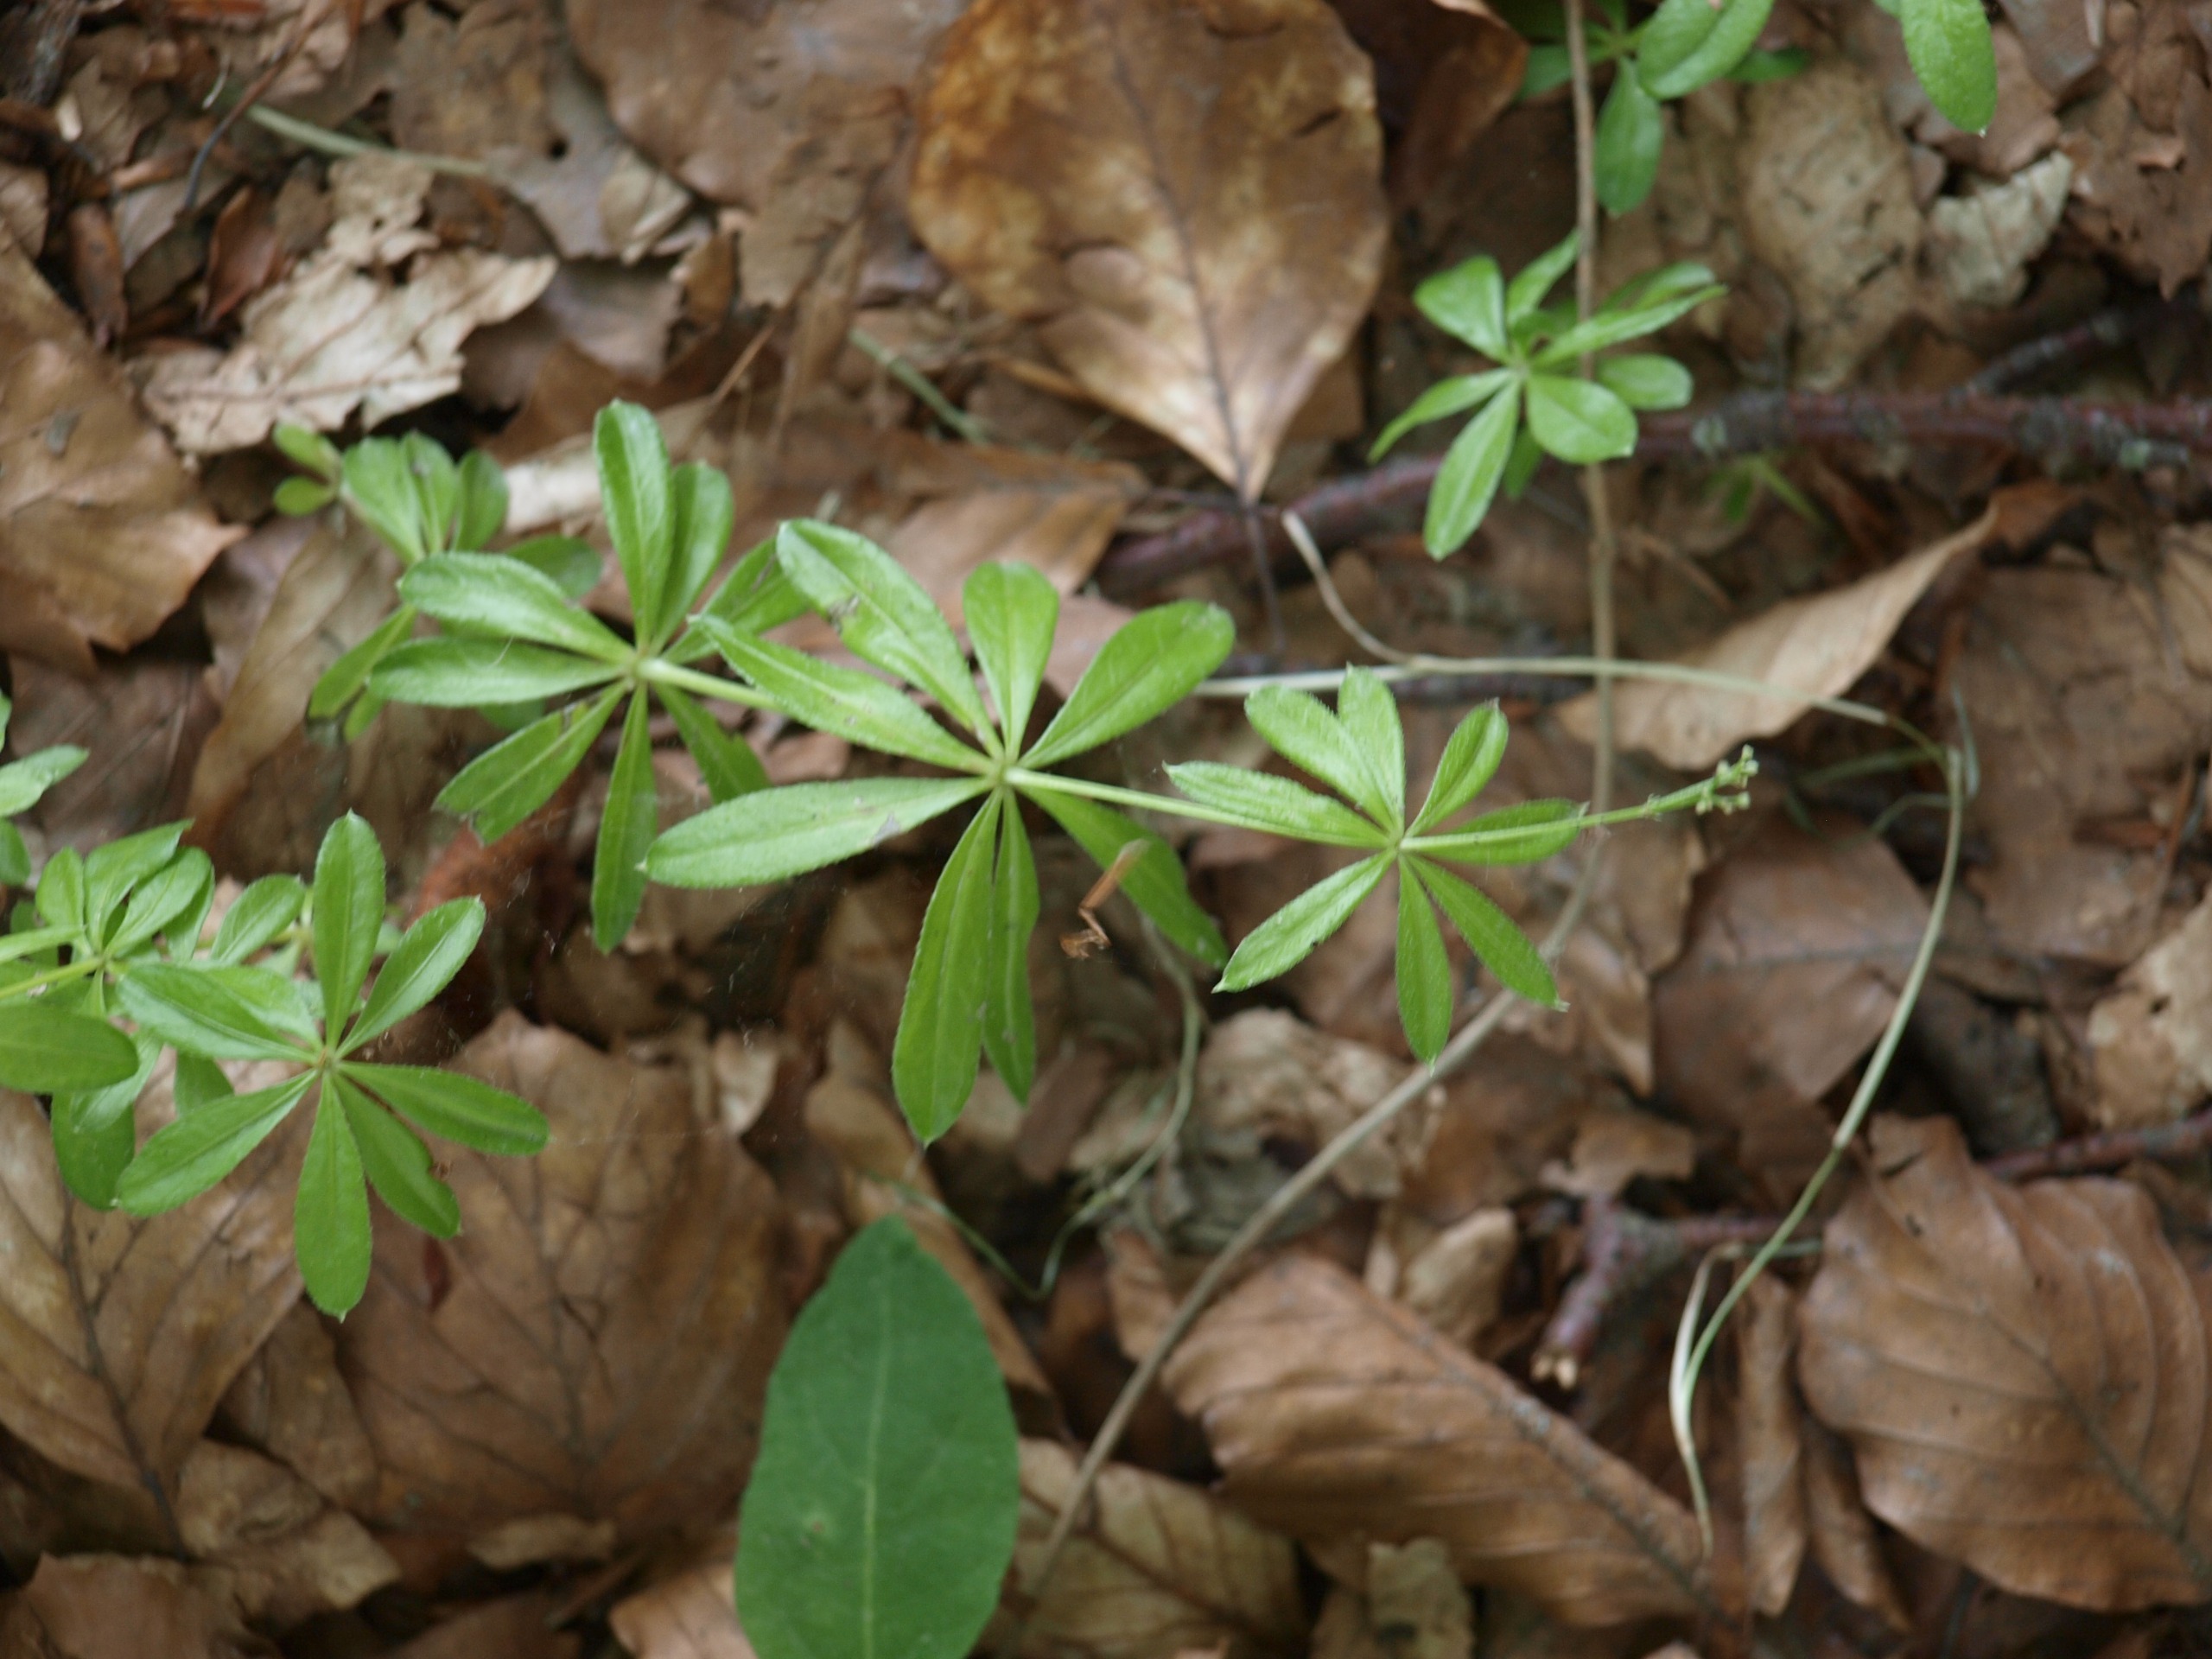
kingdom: Plantae
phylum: Tracheophyta
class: Magnoliopsida
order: Gentianales
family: Rubiaceae
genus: Galium
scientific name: Galium odoratum
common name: Skovmærke
